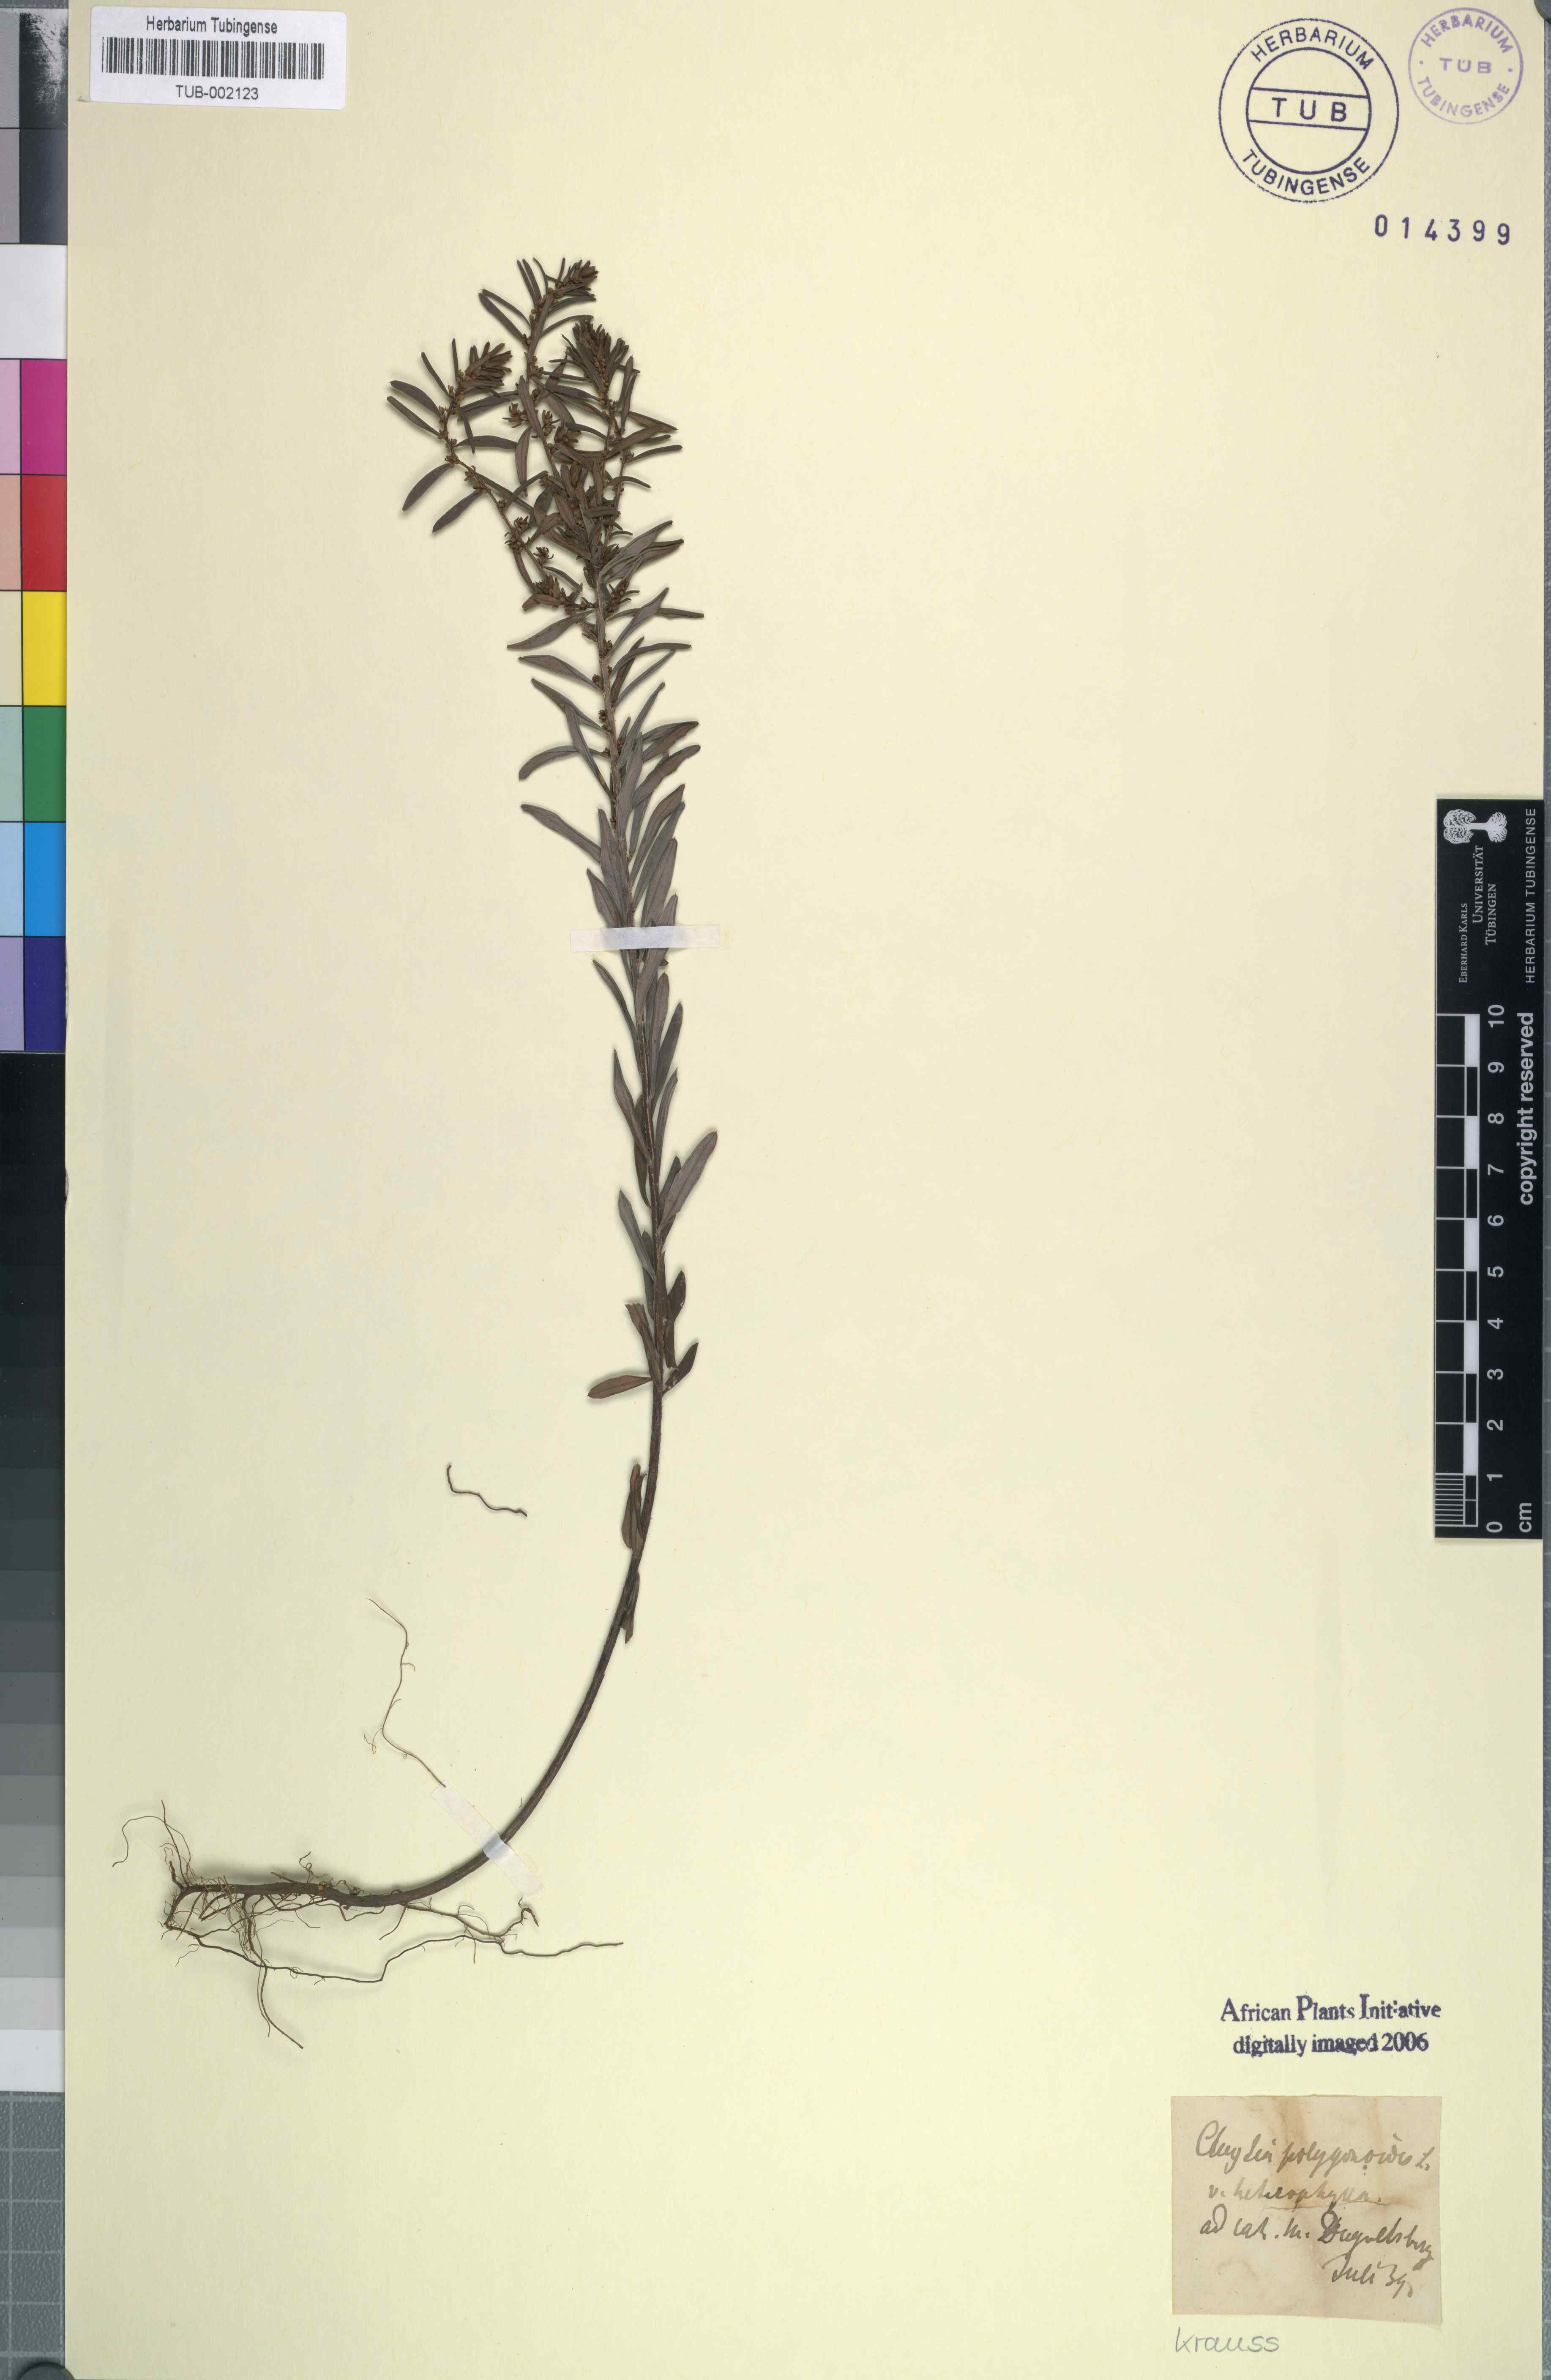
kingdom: Plantae
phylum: Tracheophyta
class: Magnoliopsida
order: Malpighiales
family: Peraceae
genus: Clutia
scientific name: Clutia polygonoides
